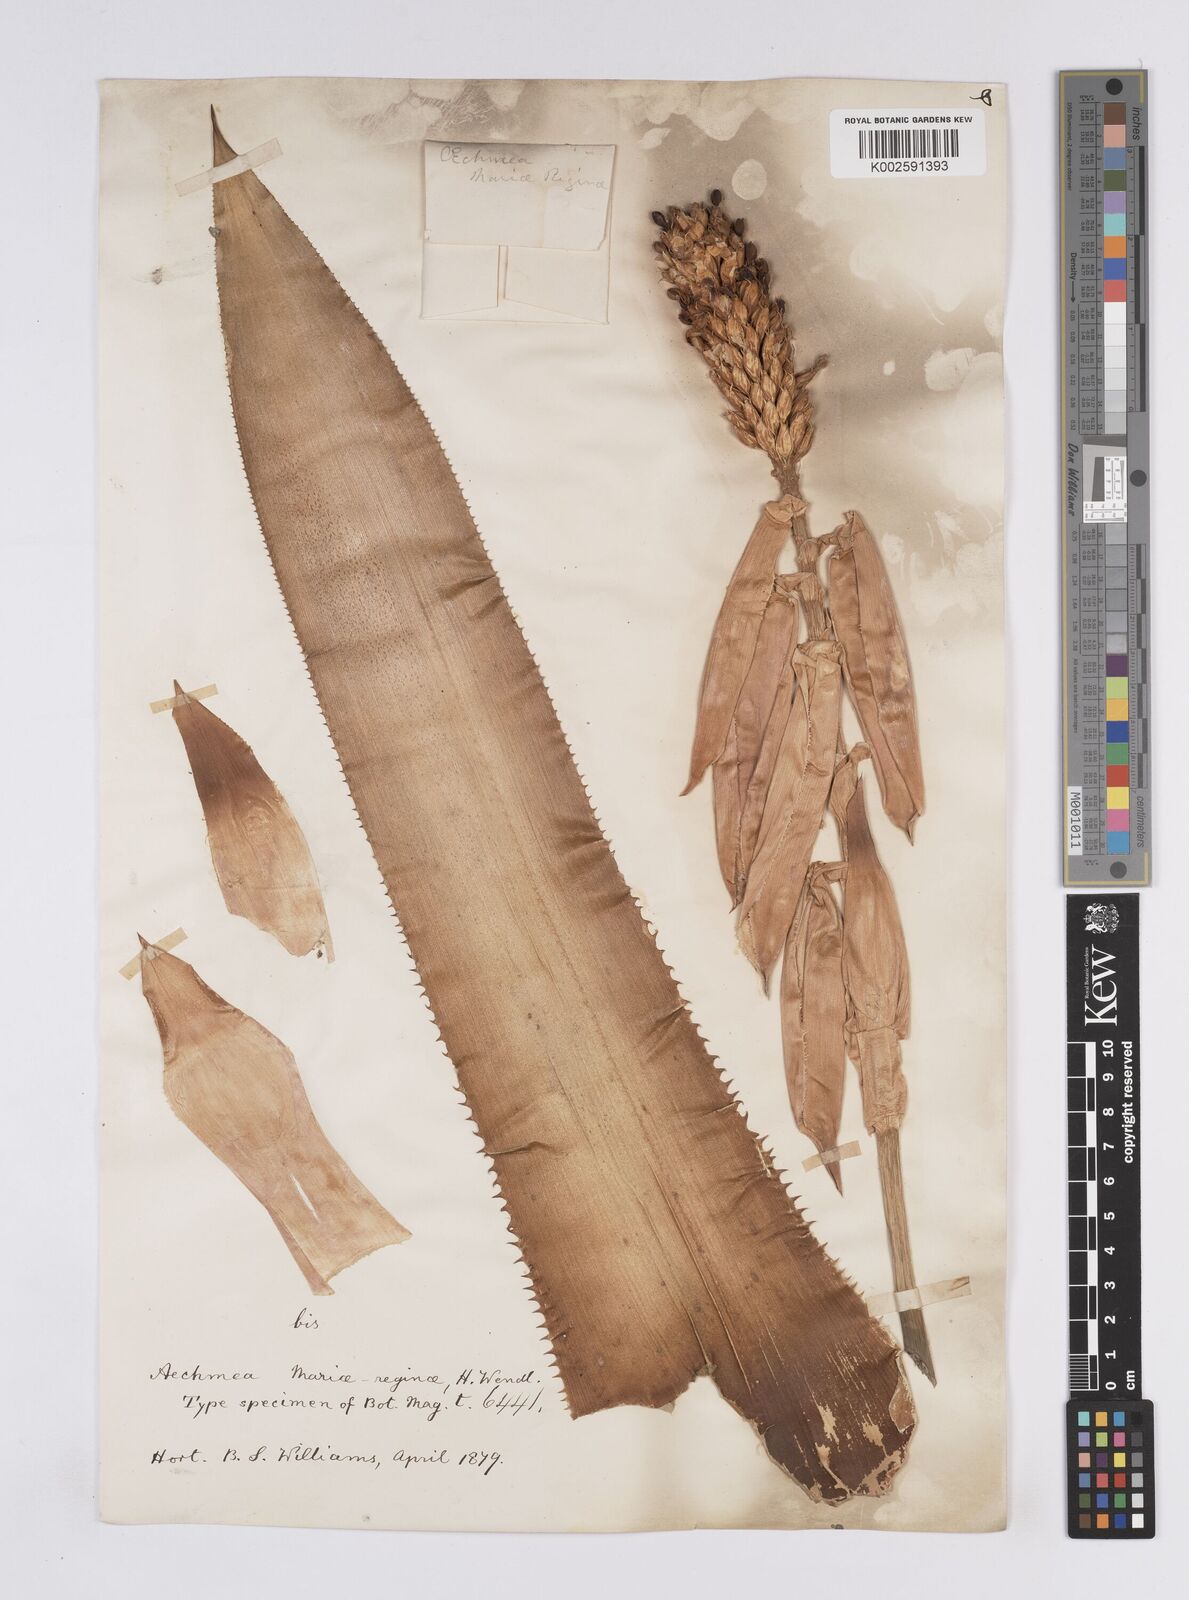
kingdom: Plantae
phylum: Tracheophyta
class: Liliopsida
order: Poales
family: Bromeliaceae
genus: Aechmea
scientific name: Aechmea mariae-reginae
